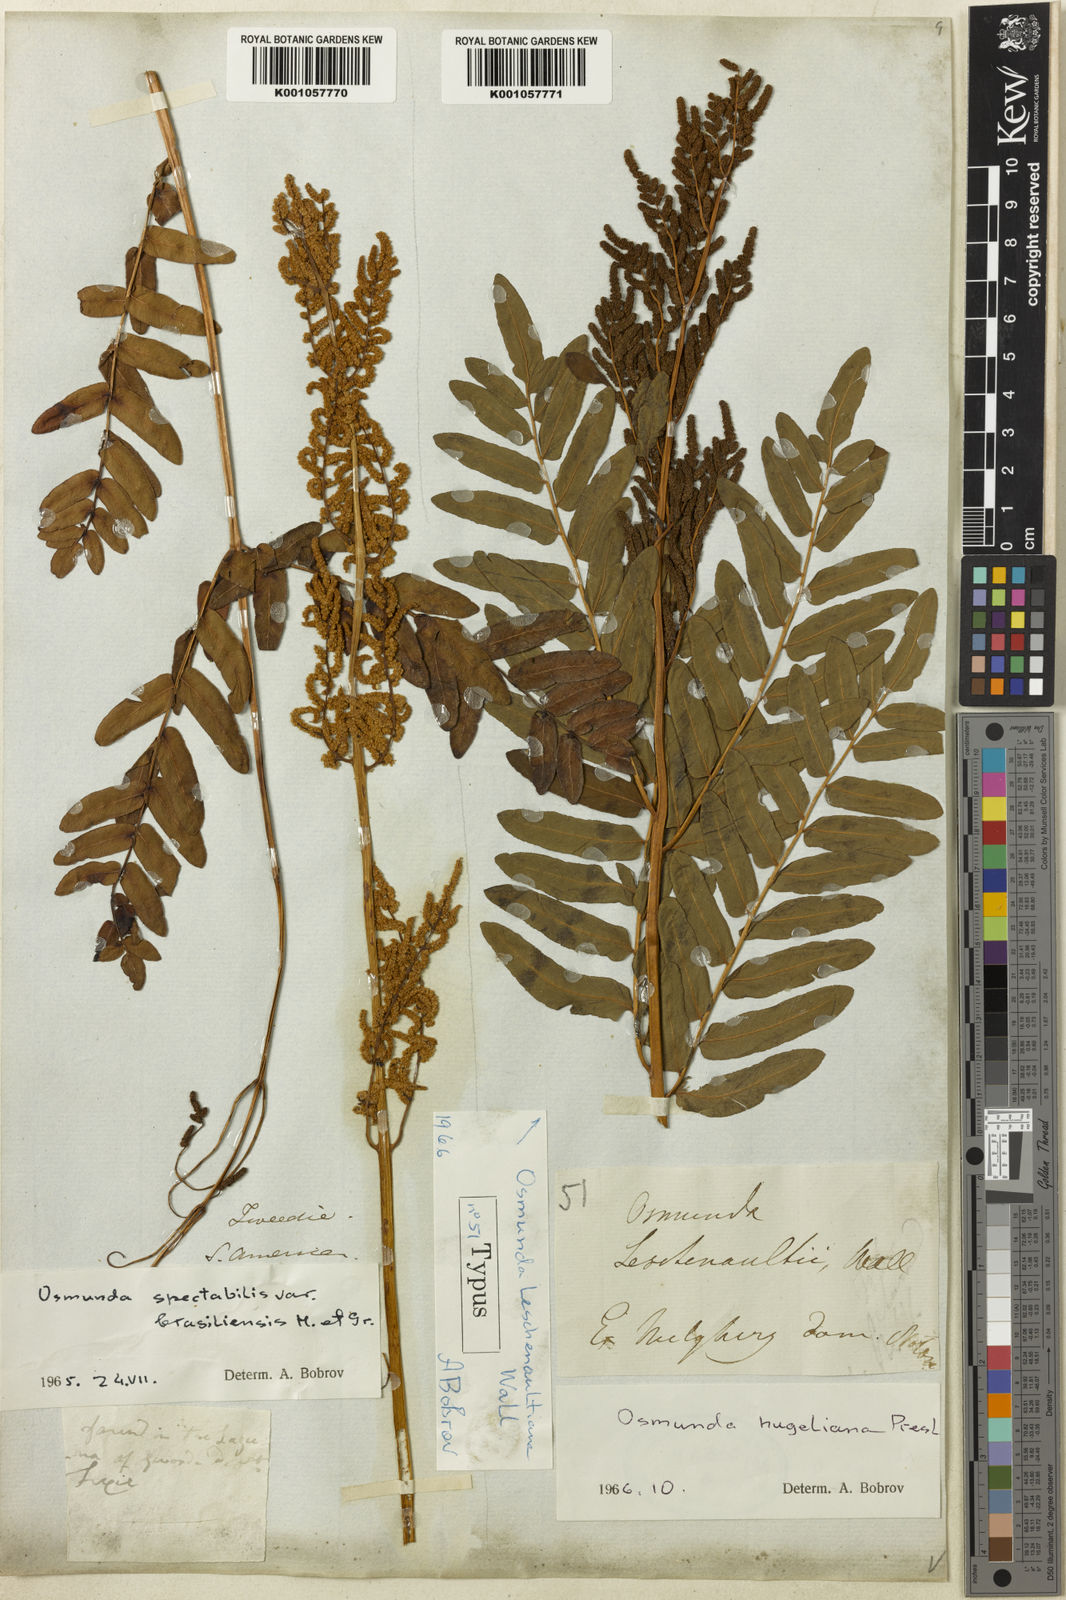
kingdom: Plantae
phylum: Tracheophyta
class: Polypodiopsida
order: Osmundales
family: Osmundaceae
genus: Osmunda
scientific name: Osmunda acuta
